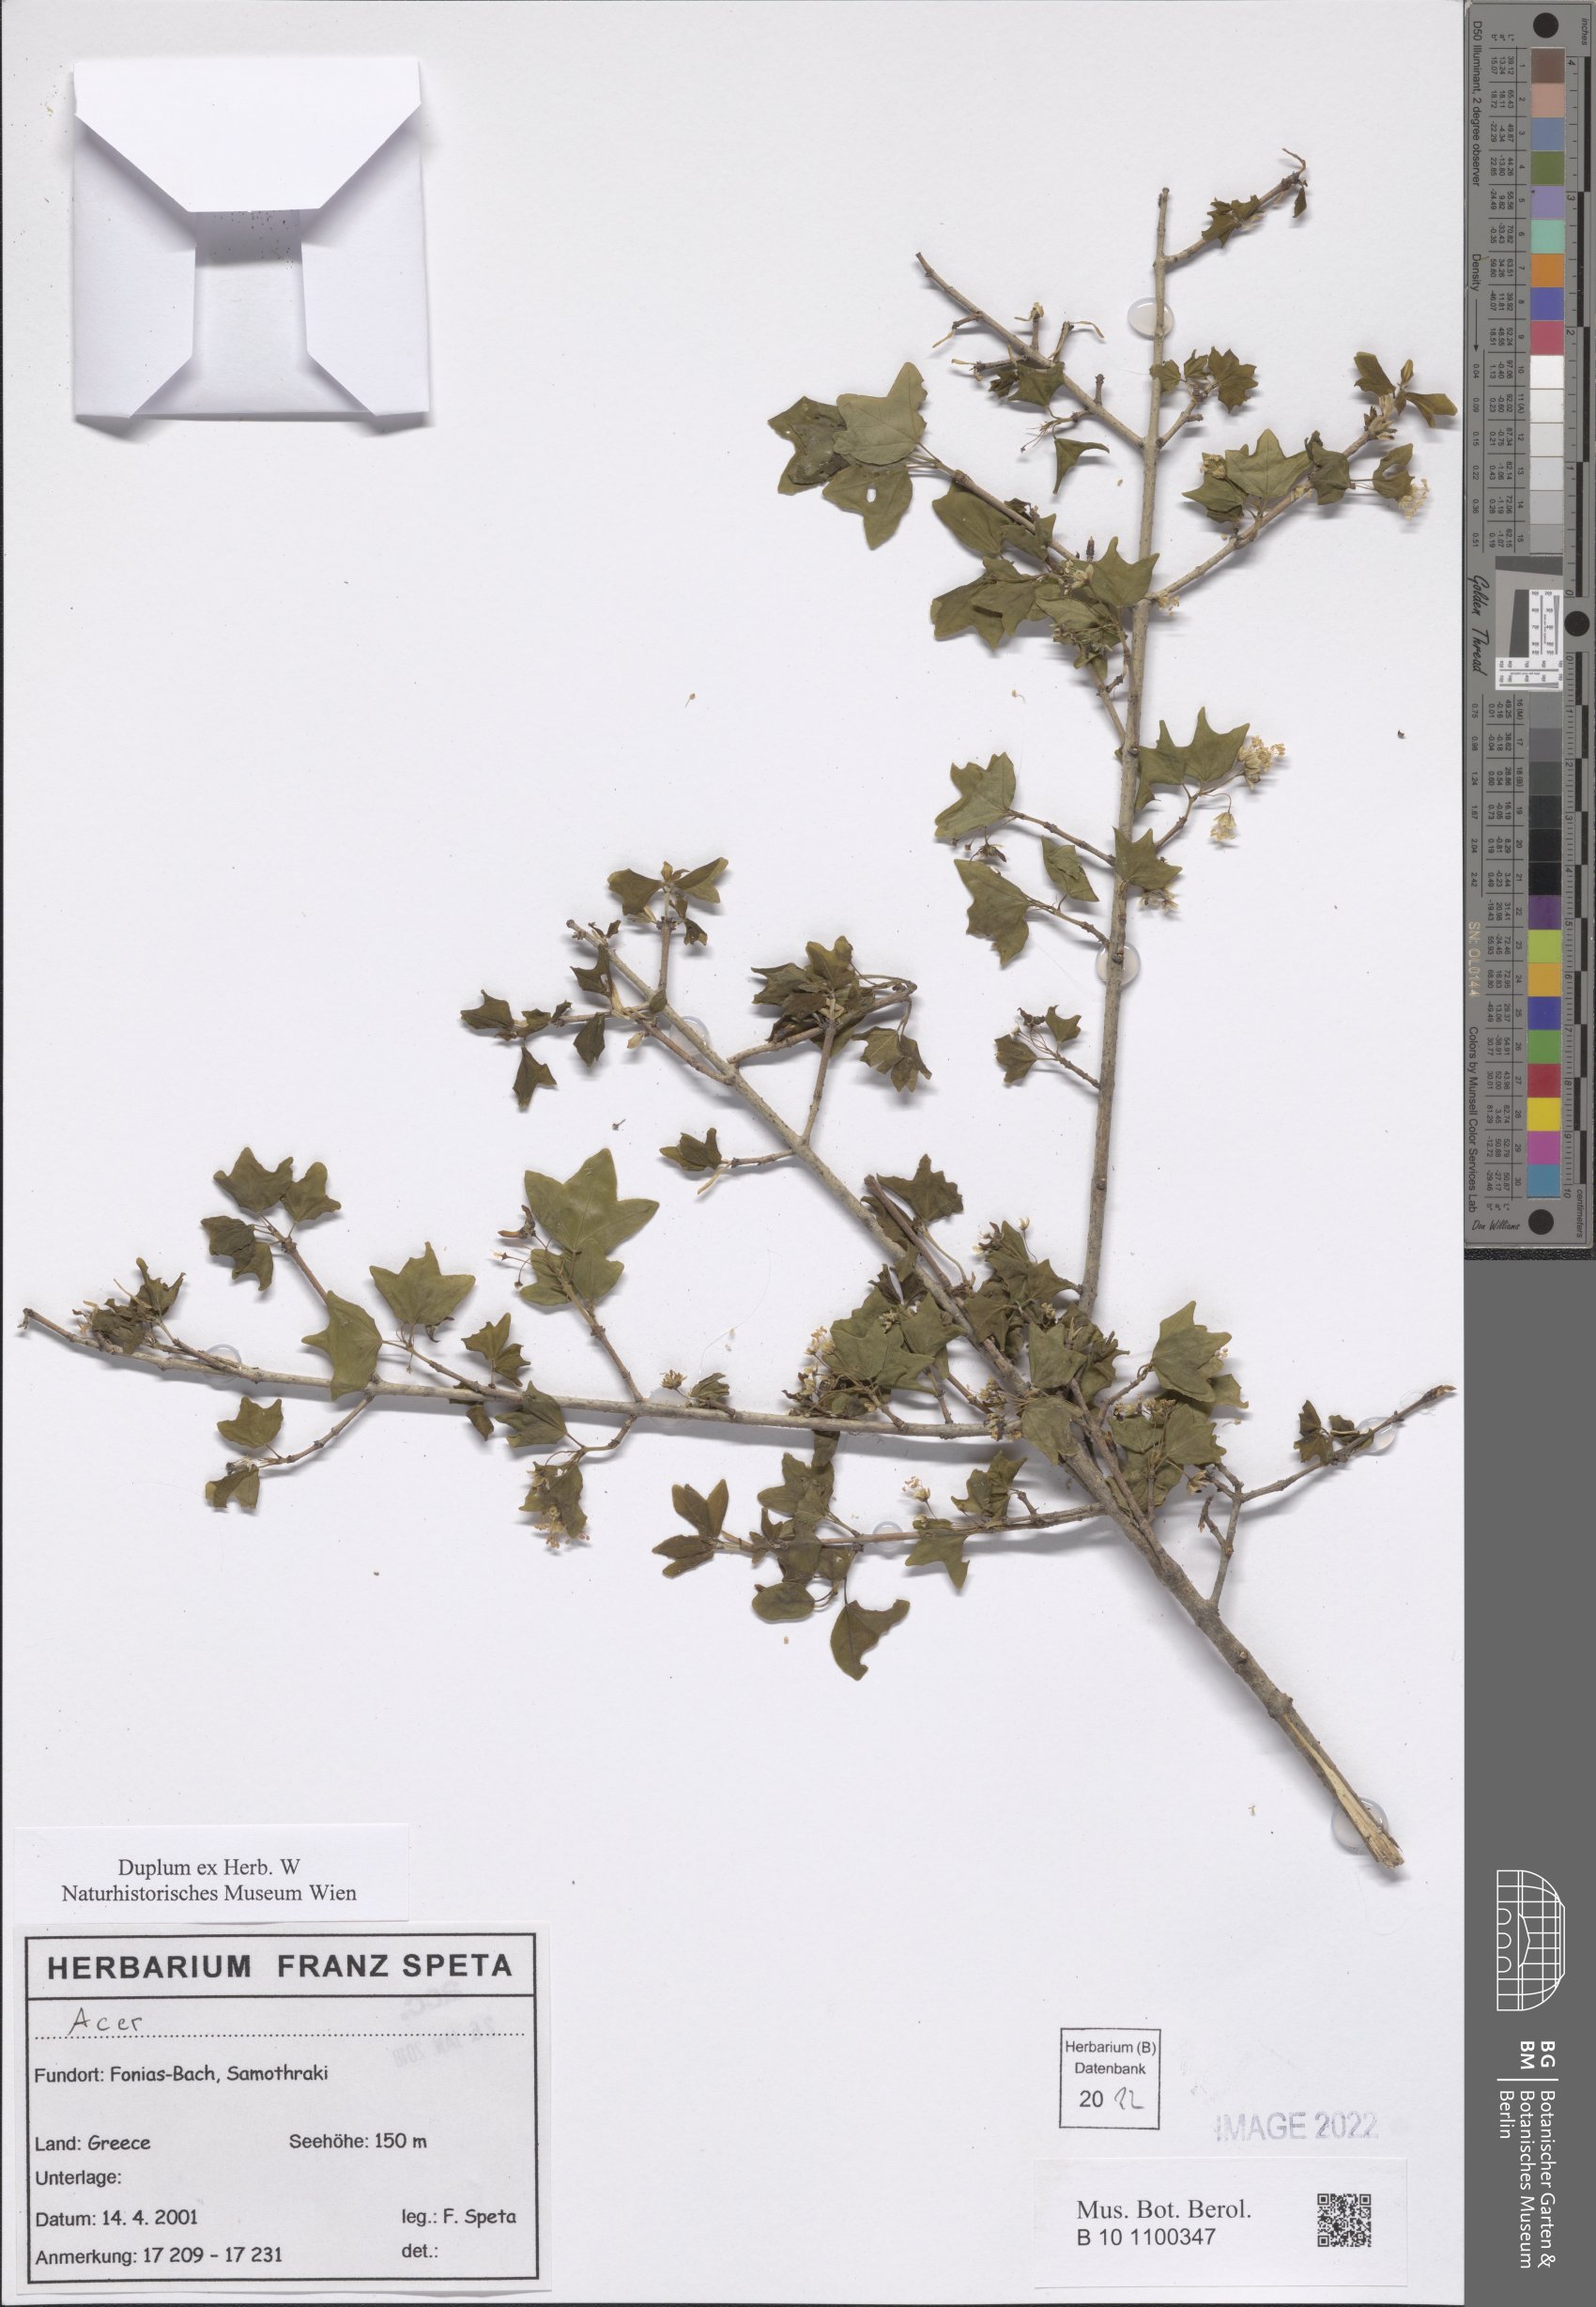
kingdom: Plantae
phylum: Tracheophyta
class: Magnoliopsida
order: Sapindales
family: Sapindaceae
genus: Acer
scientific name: Acer
